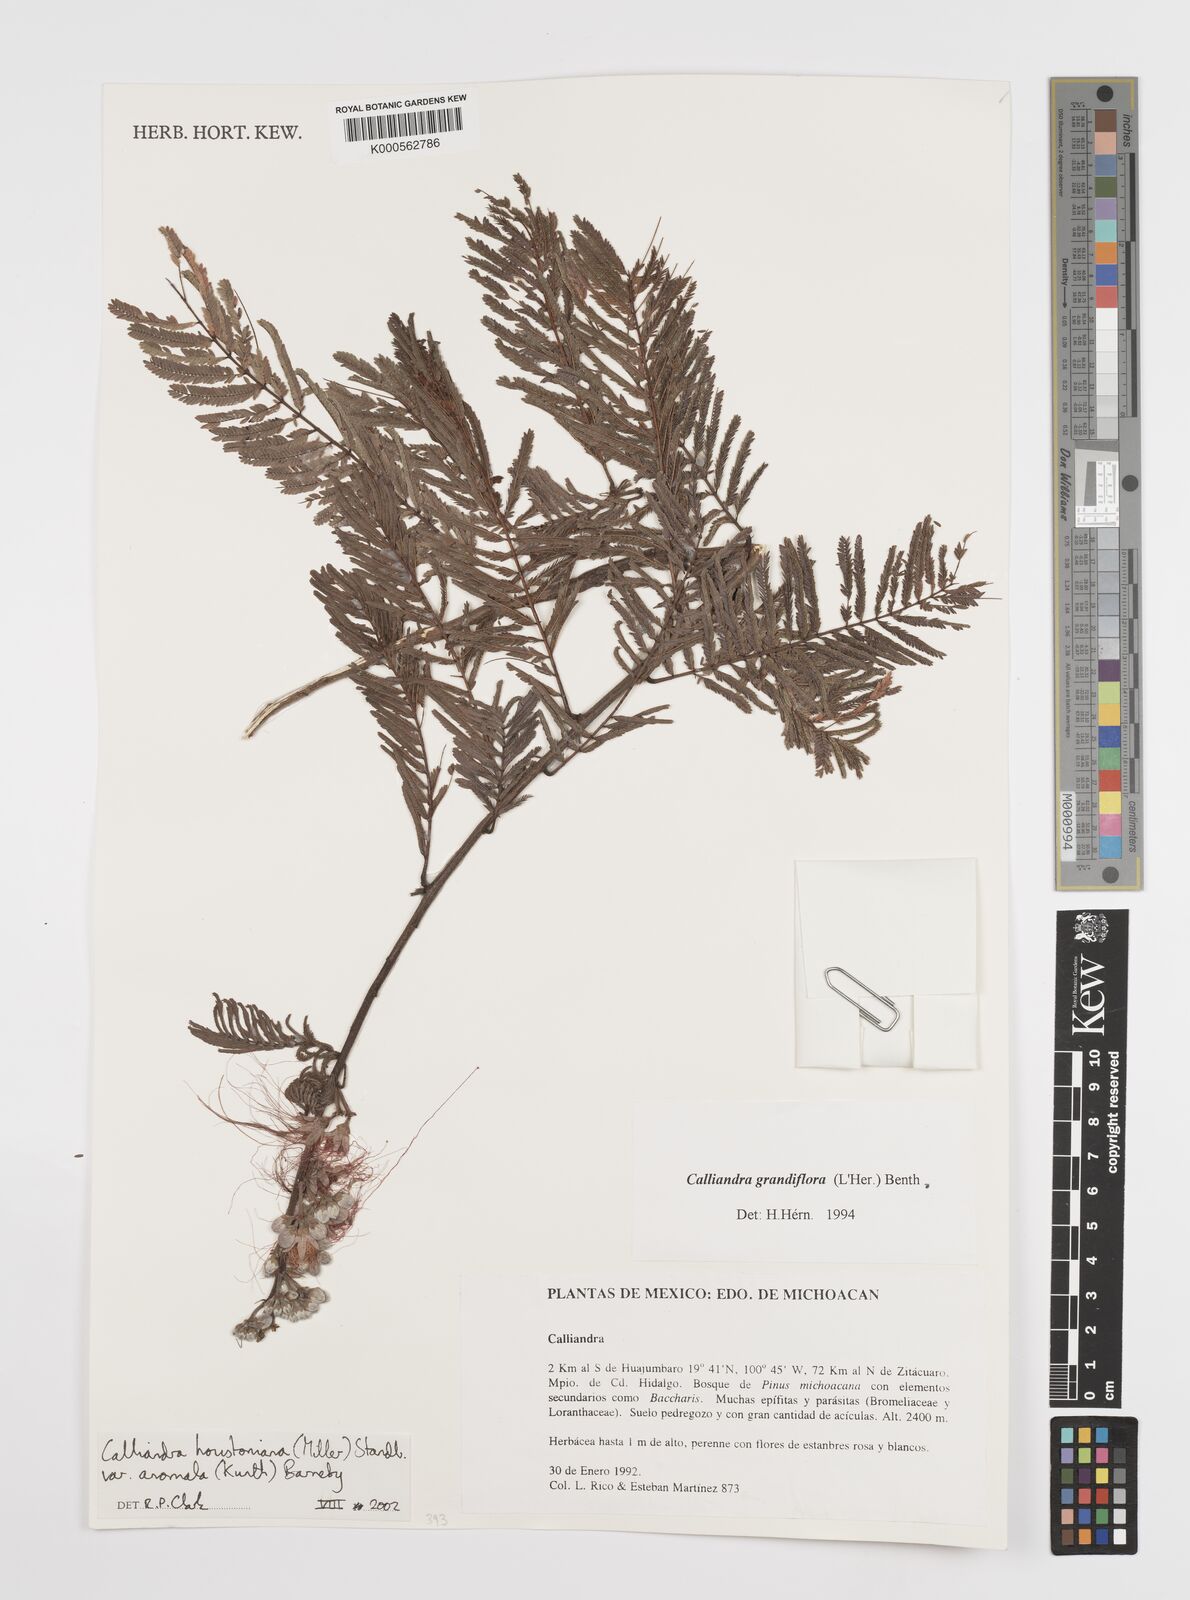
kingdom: Plantae
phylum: Tracheophyta
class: Magnoliopsida
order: Fabales
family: Fabaceae
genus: Calliandra
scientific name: Calliandra houstoniana
